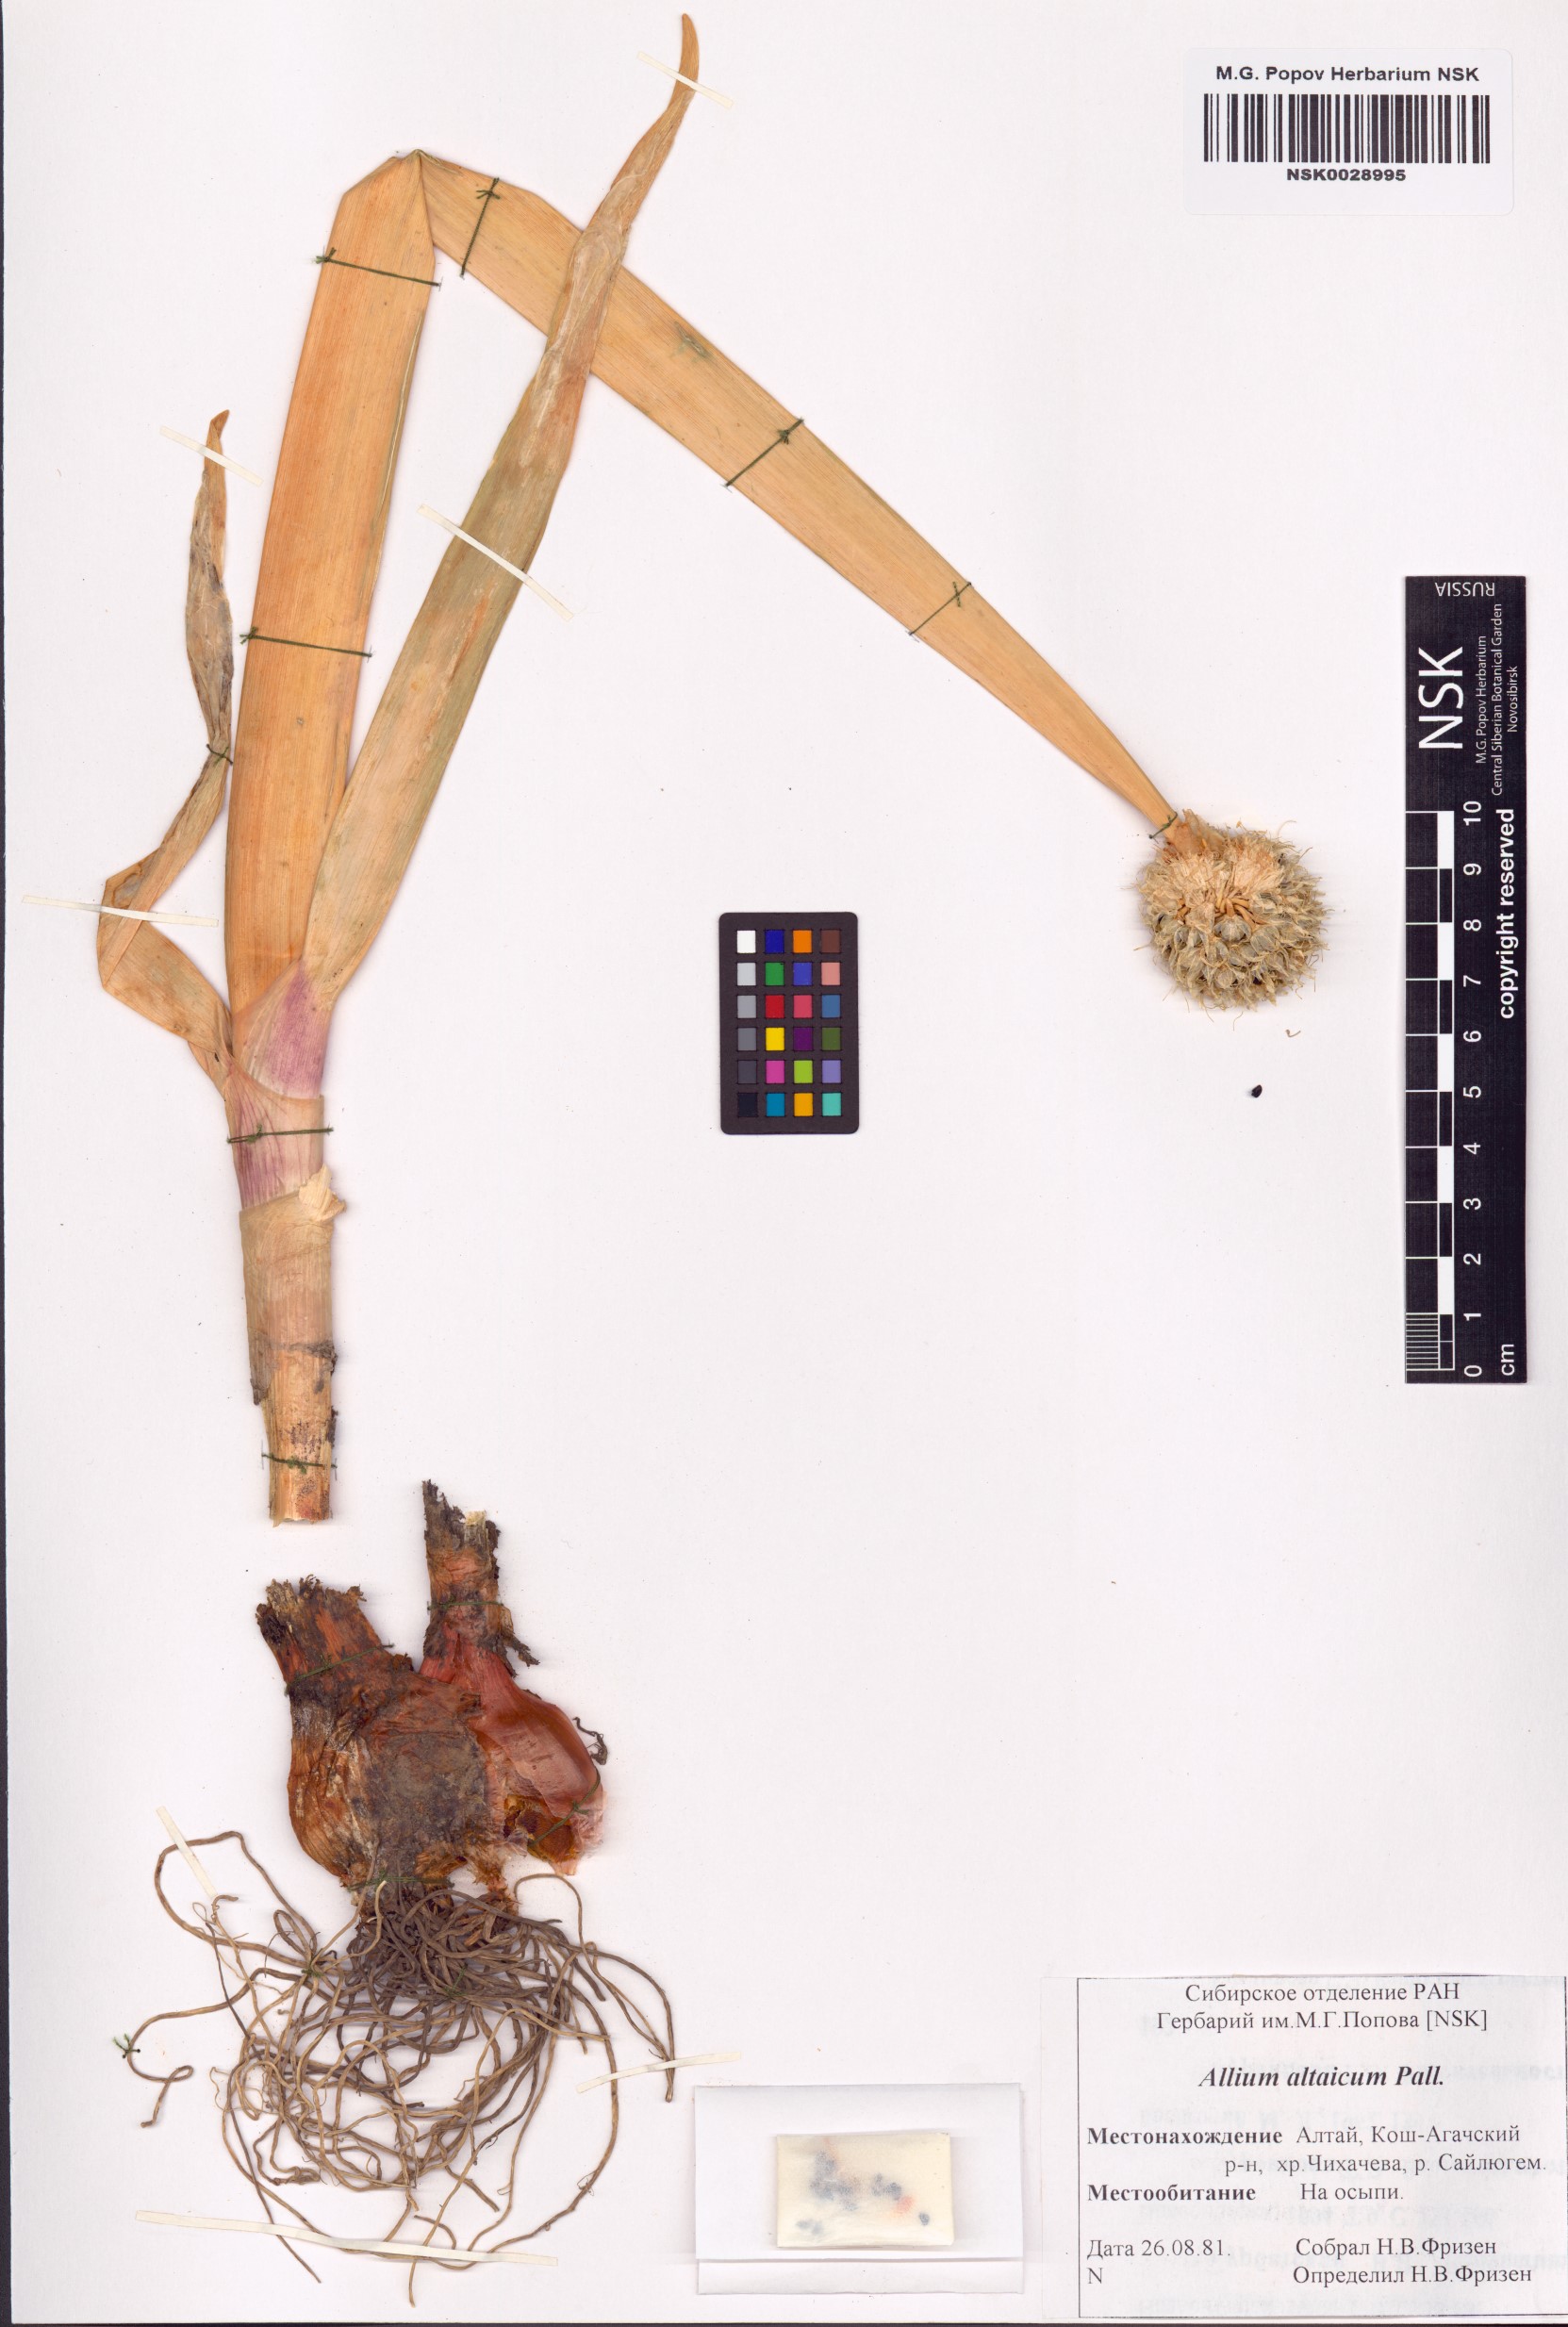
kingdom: Plantae
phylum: Tracheophyta
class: Liliopsida
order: Asparagales
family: Amaryllidaceae
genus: Allium
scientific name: Allium altaicum
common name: Altai onion
